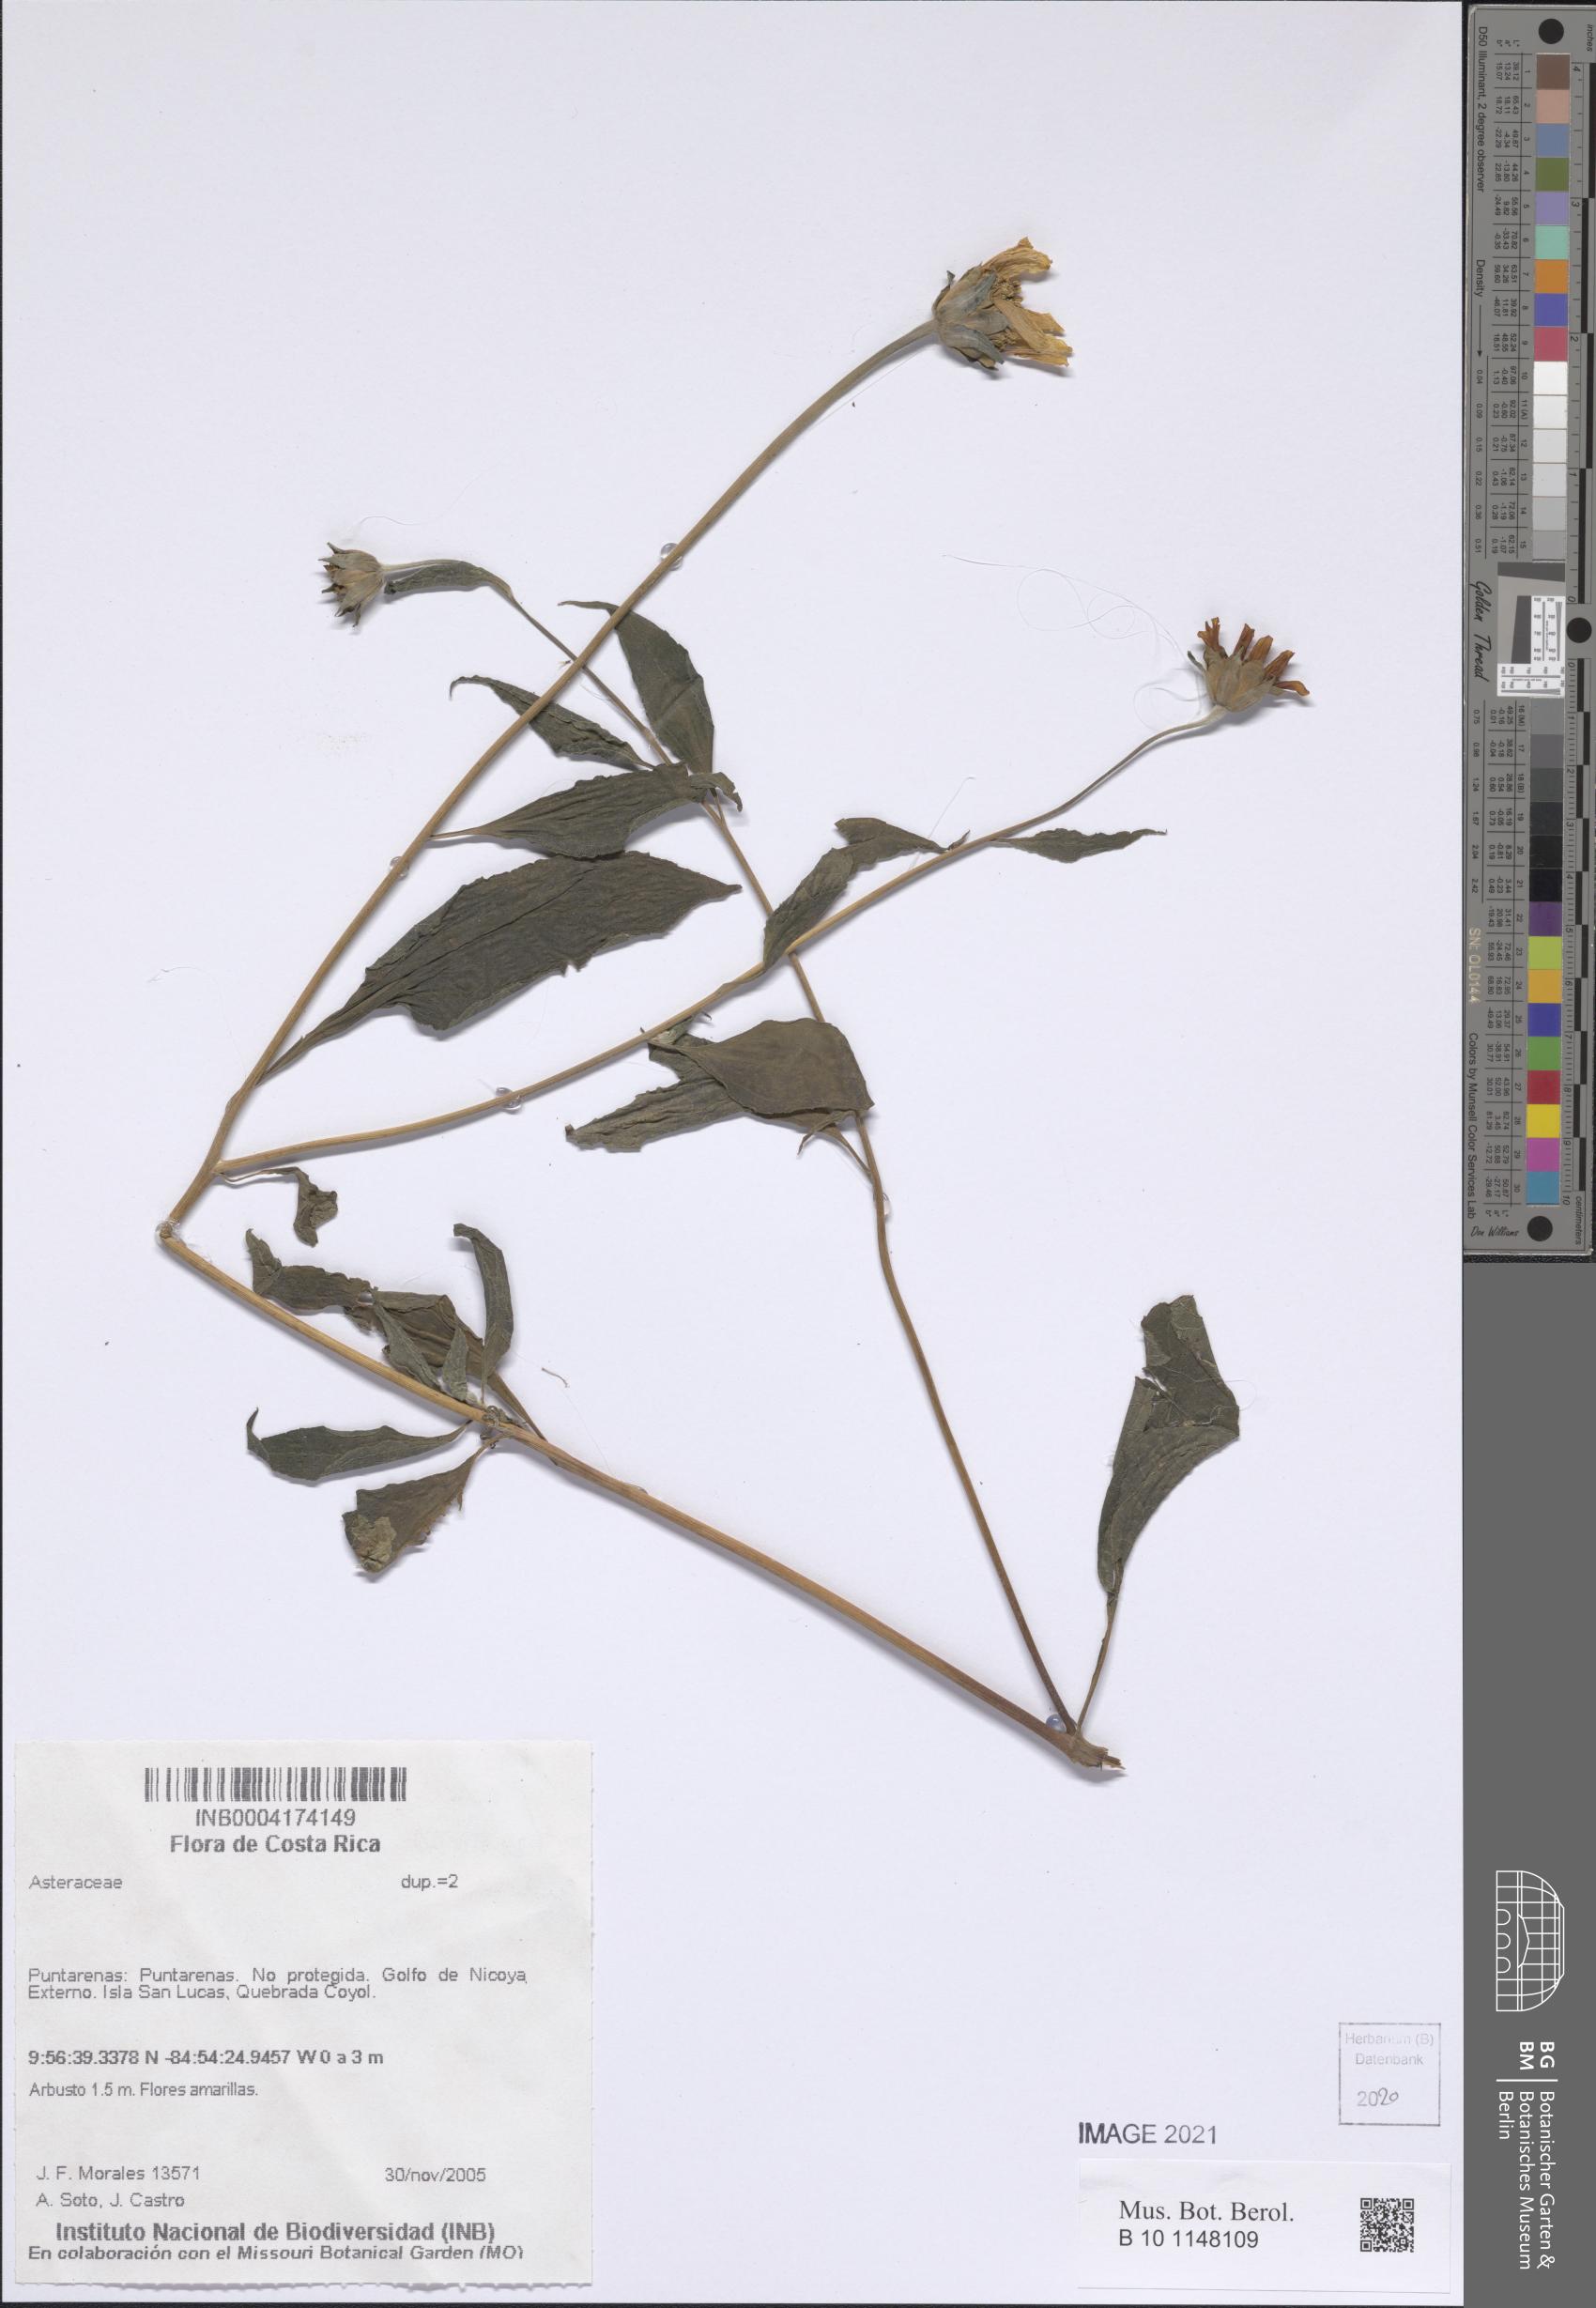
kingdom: Plantae
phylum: Tracheophyta
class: Magnoliopsida
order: Asterales
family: Asteraceae
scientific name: Asteraceae
